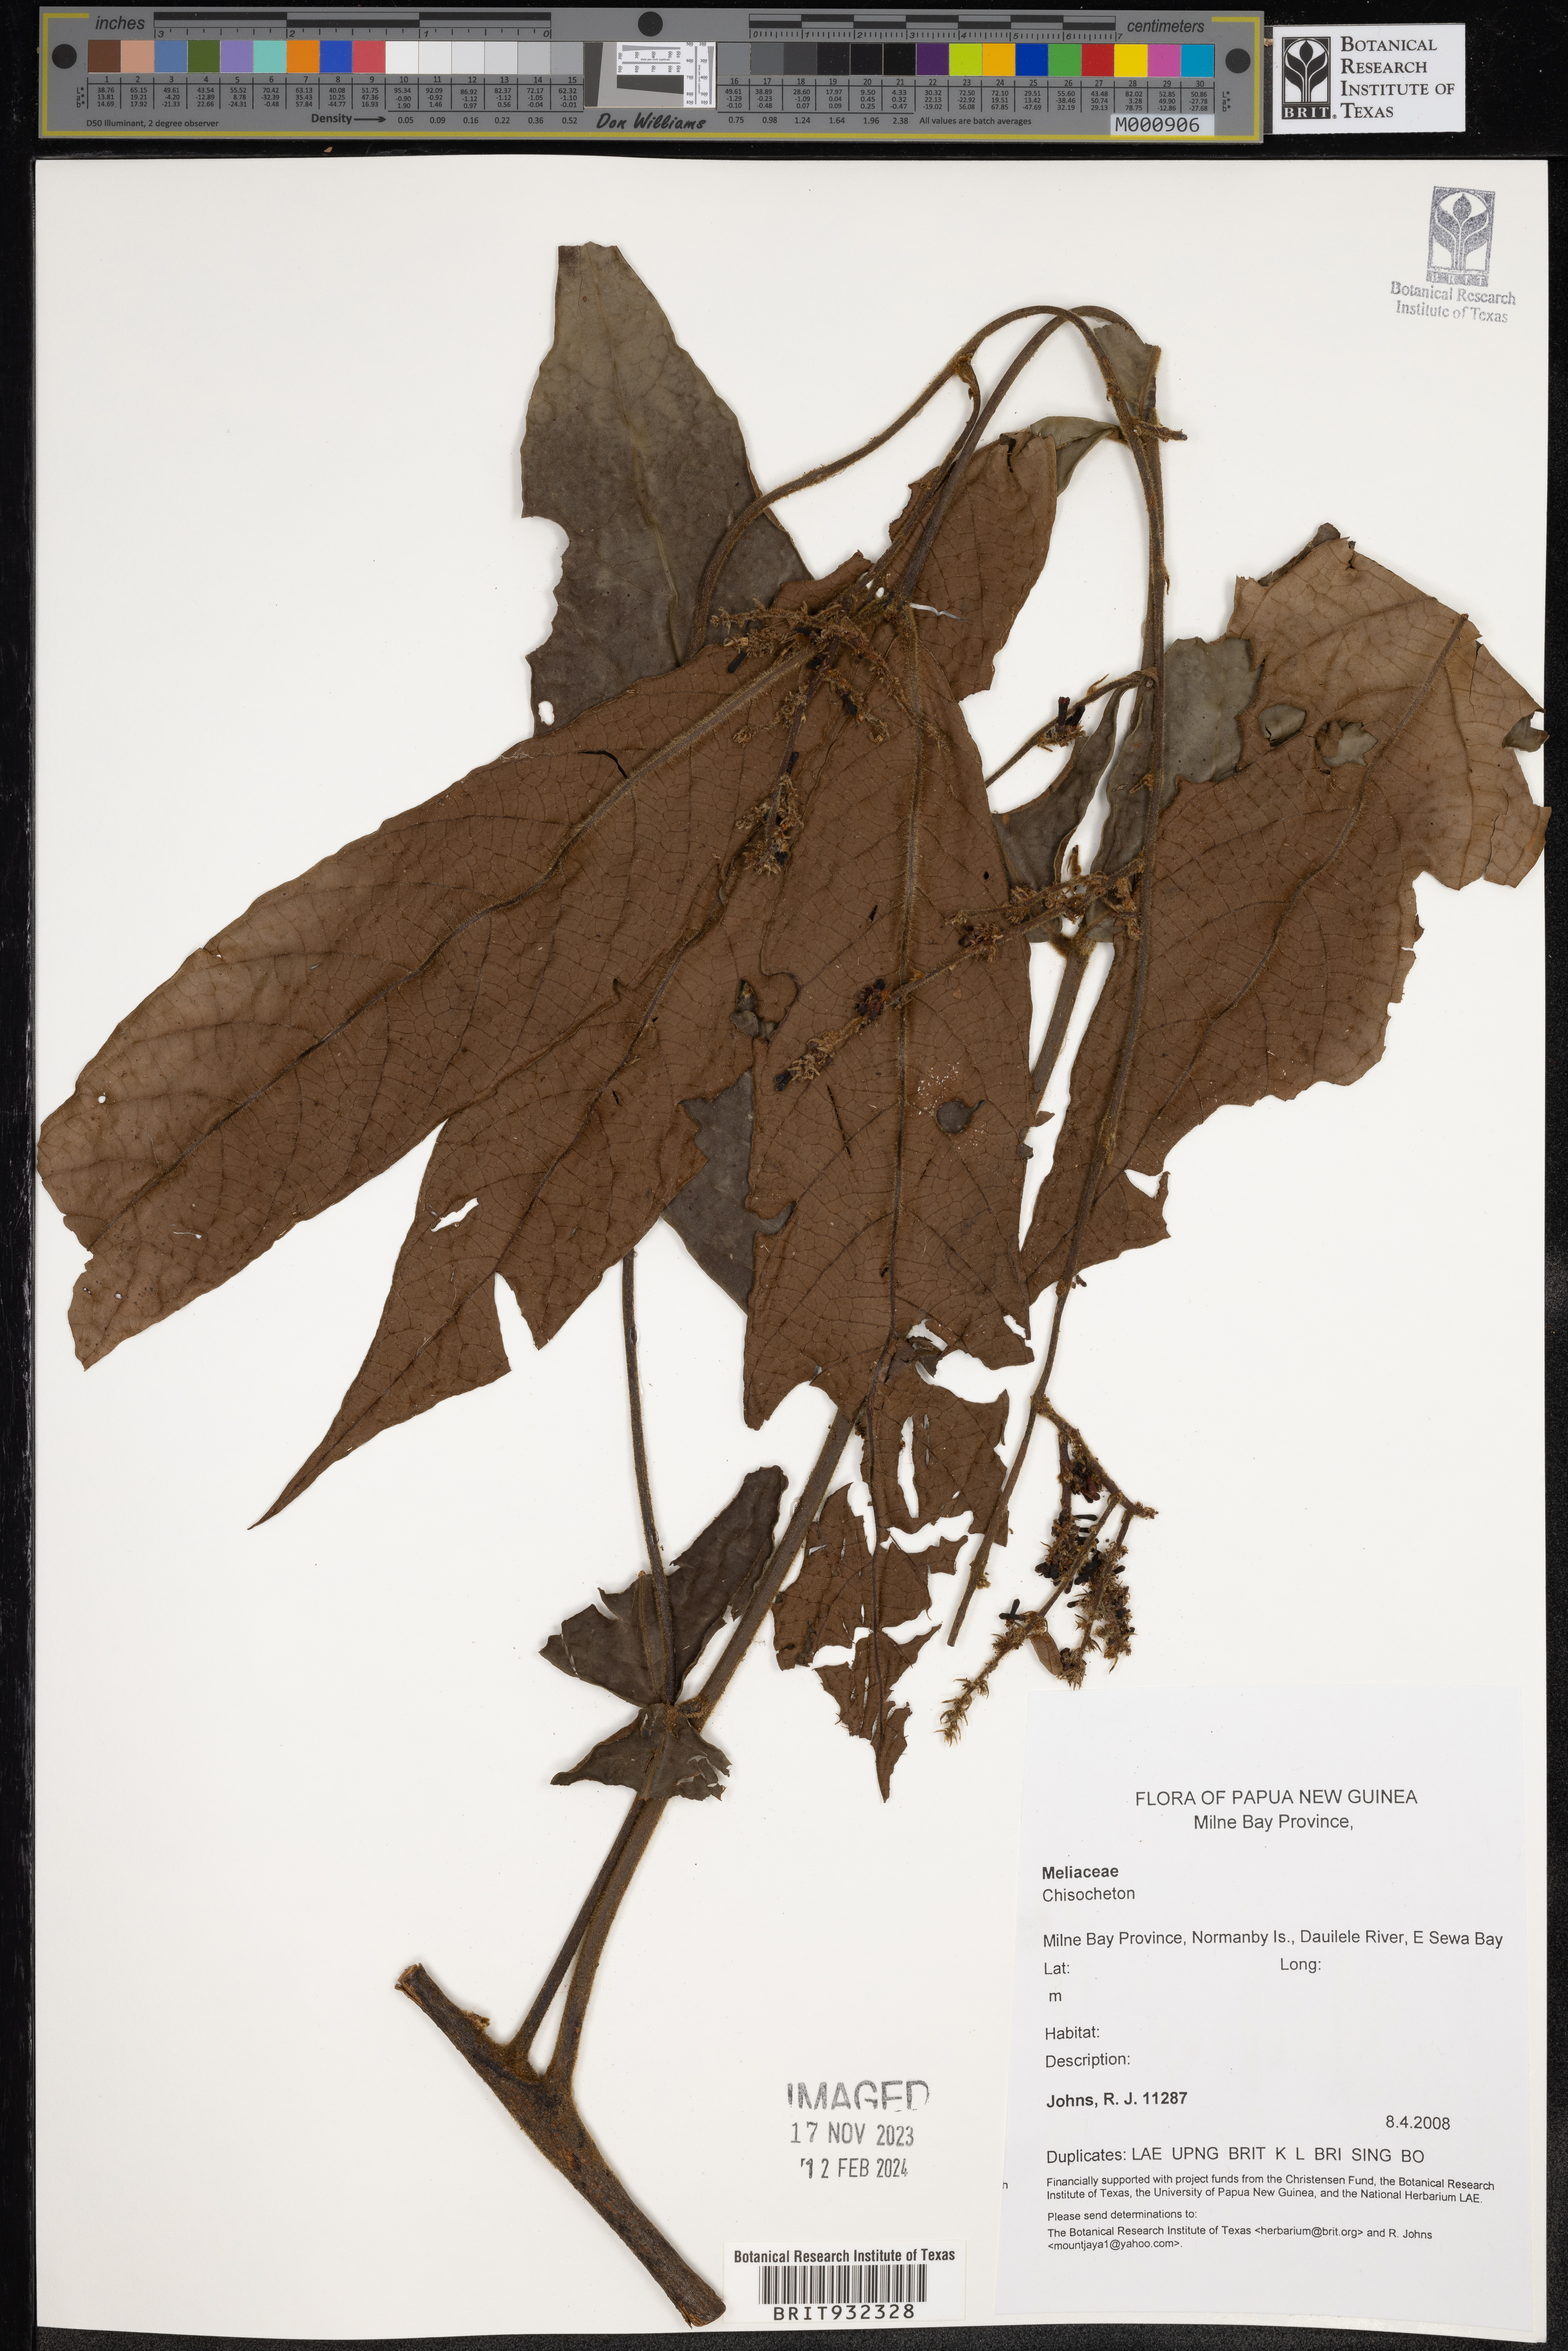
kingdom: Plantae
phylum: Tracheophyta
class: Magnoliopsida
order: Sapindales
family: Meliaceae
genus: Chisocheton
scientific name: Chisocheton
